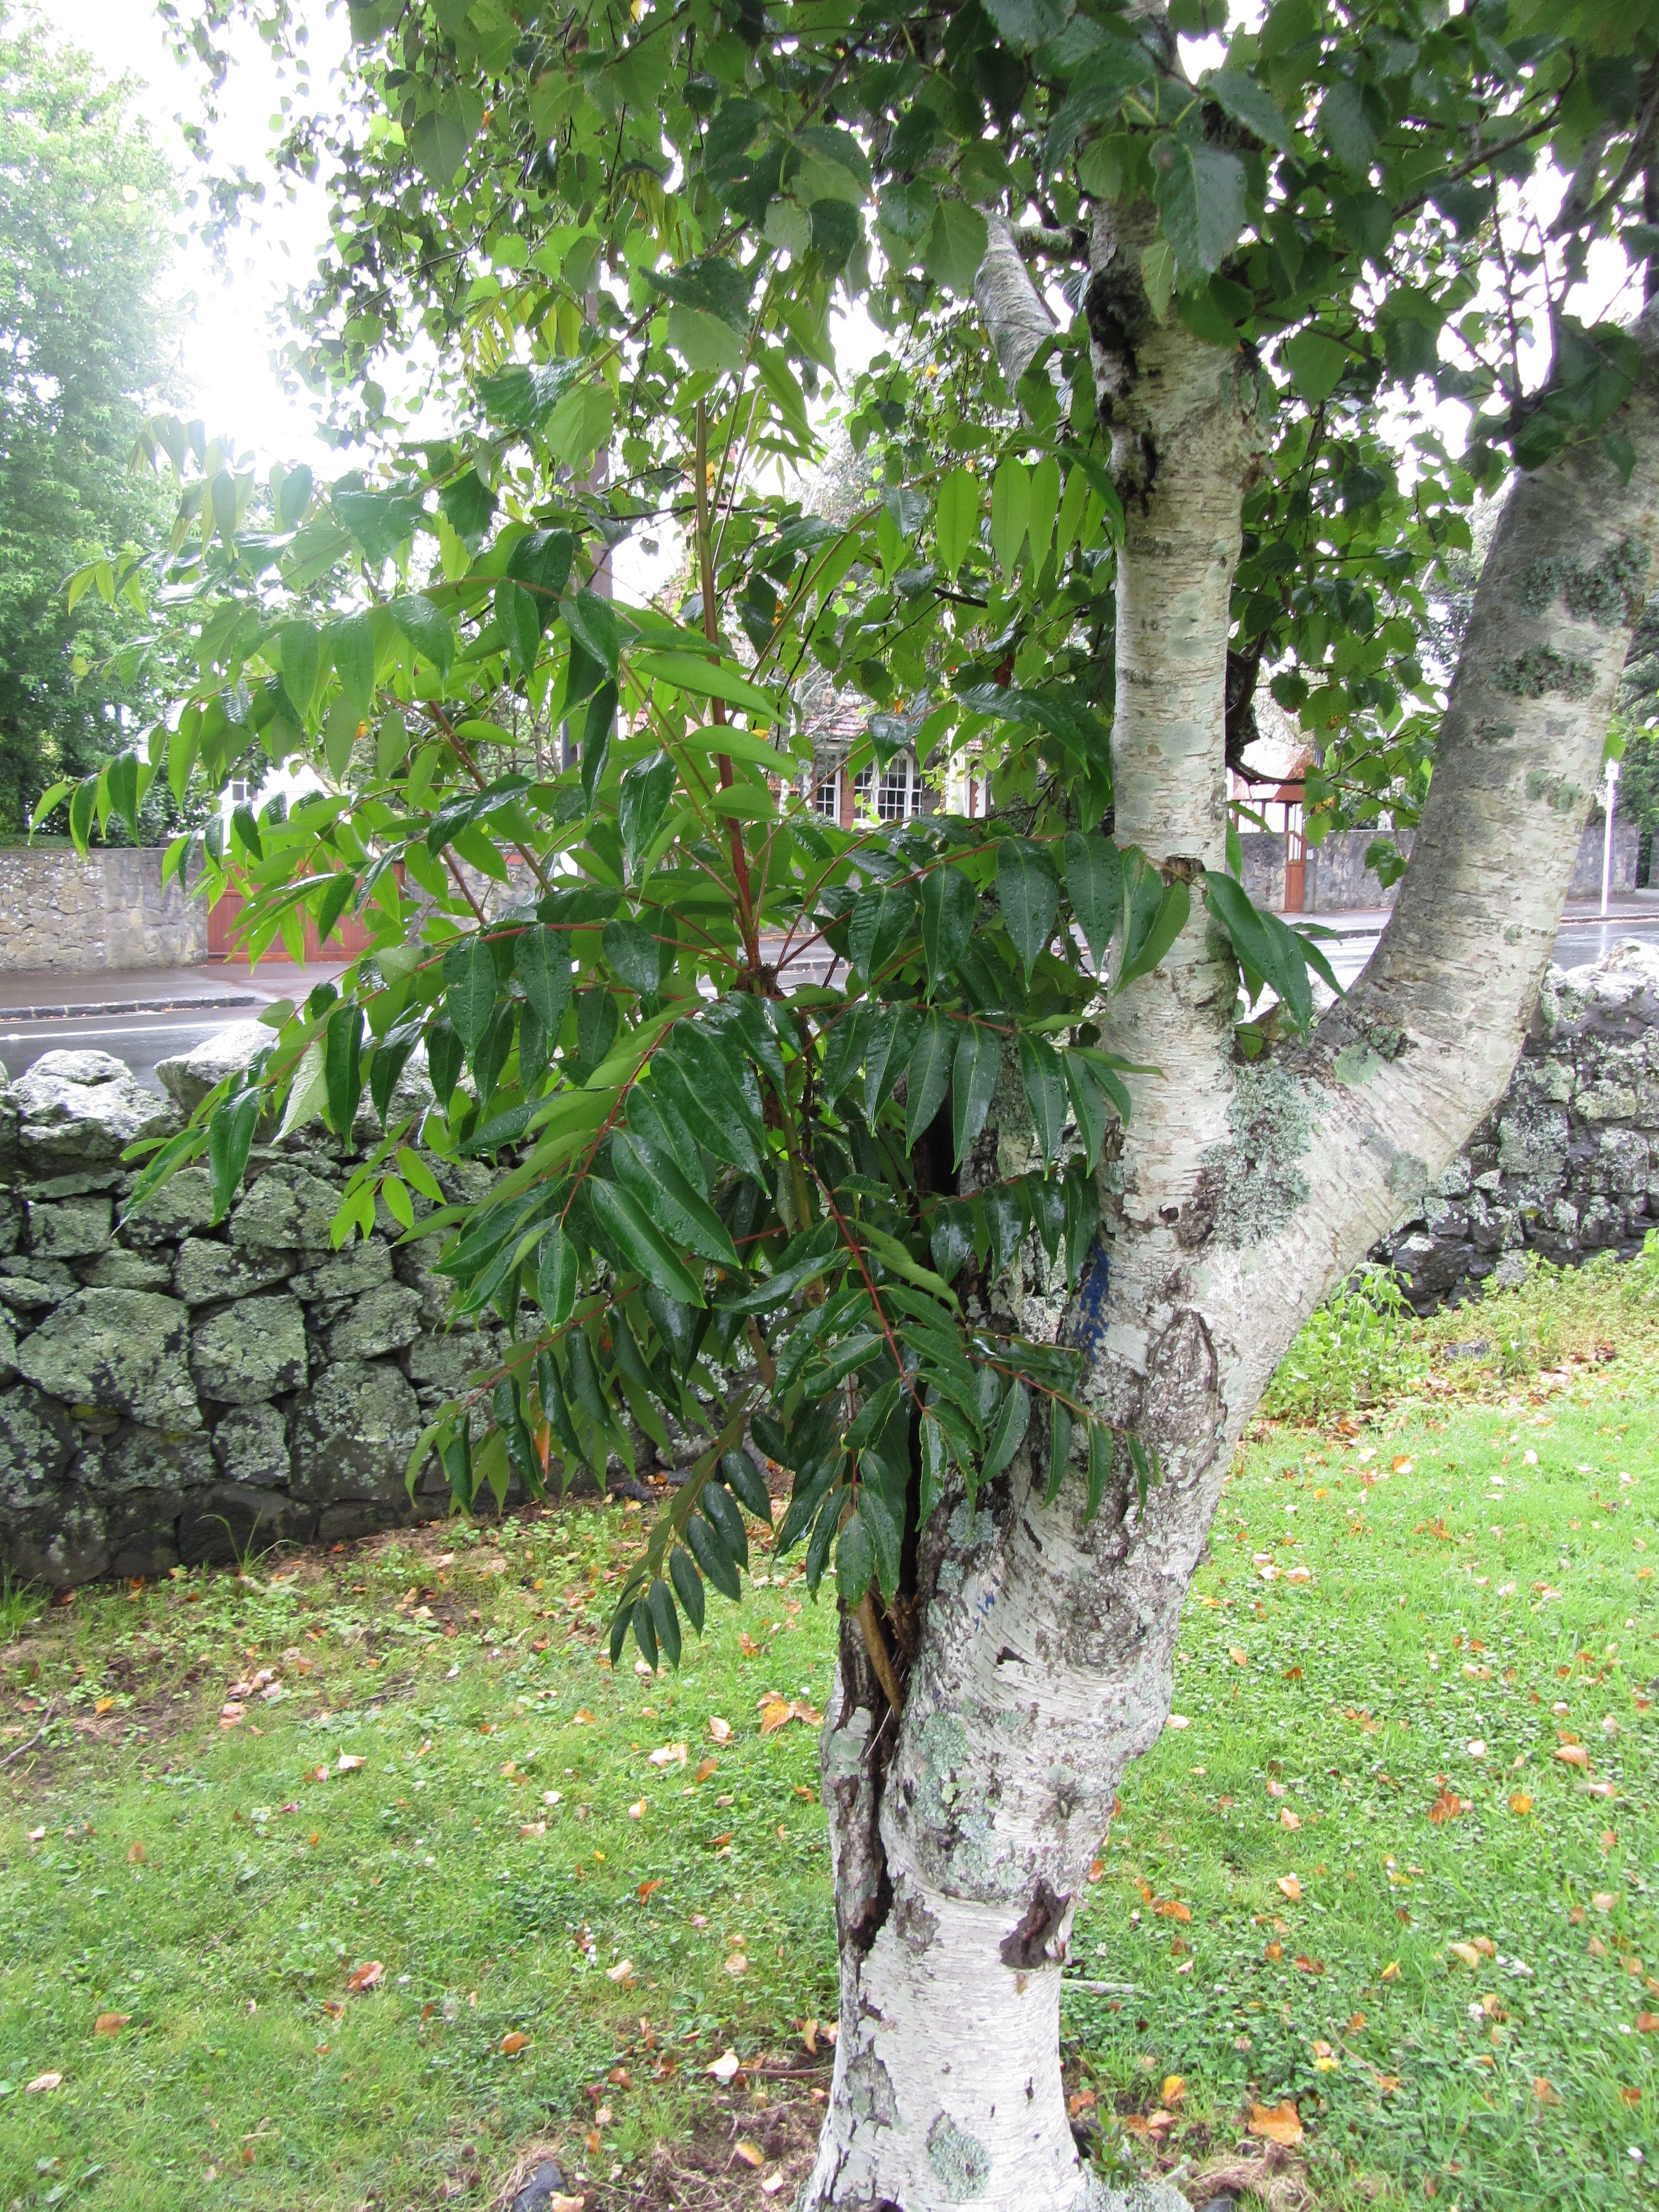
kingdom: Plantae
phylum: Tracheophyta
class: Magnoliopsida
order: Sapindales
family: Anacardiaceae
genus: Toxicodendron
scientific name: Toxicodendron succedaneum
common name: Wax tree
